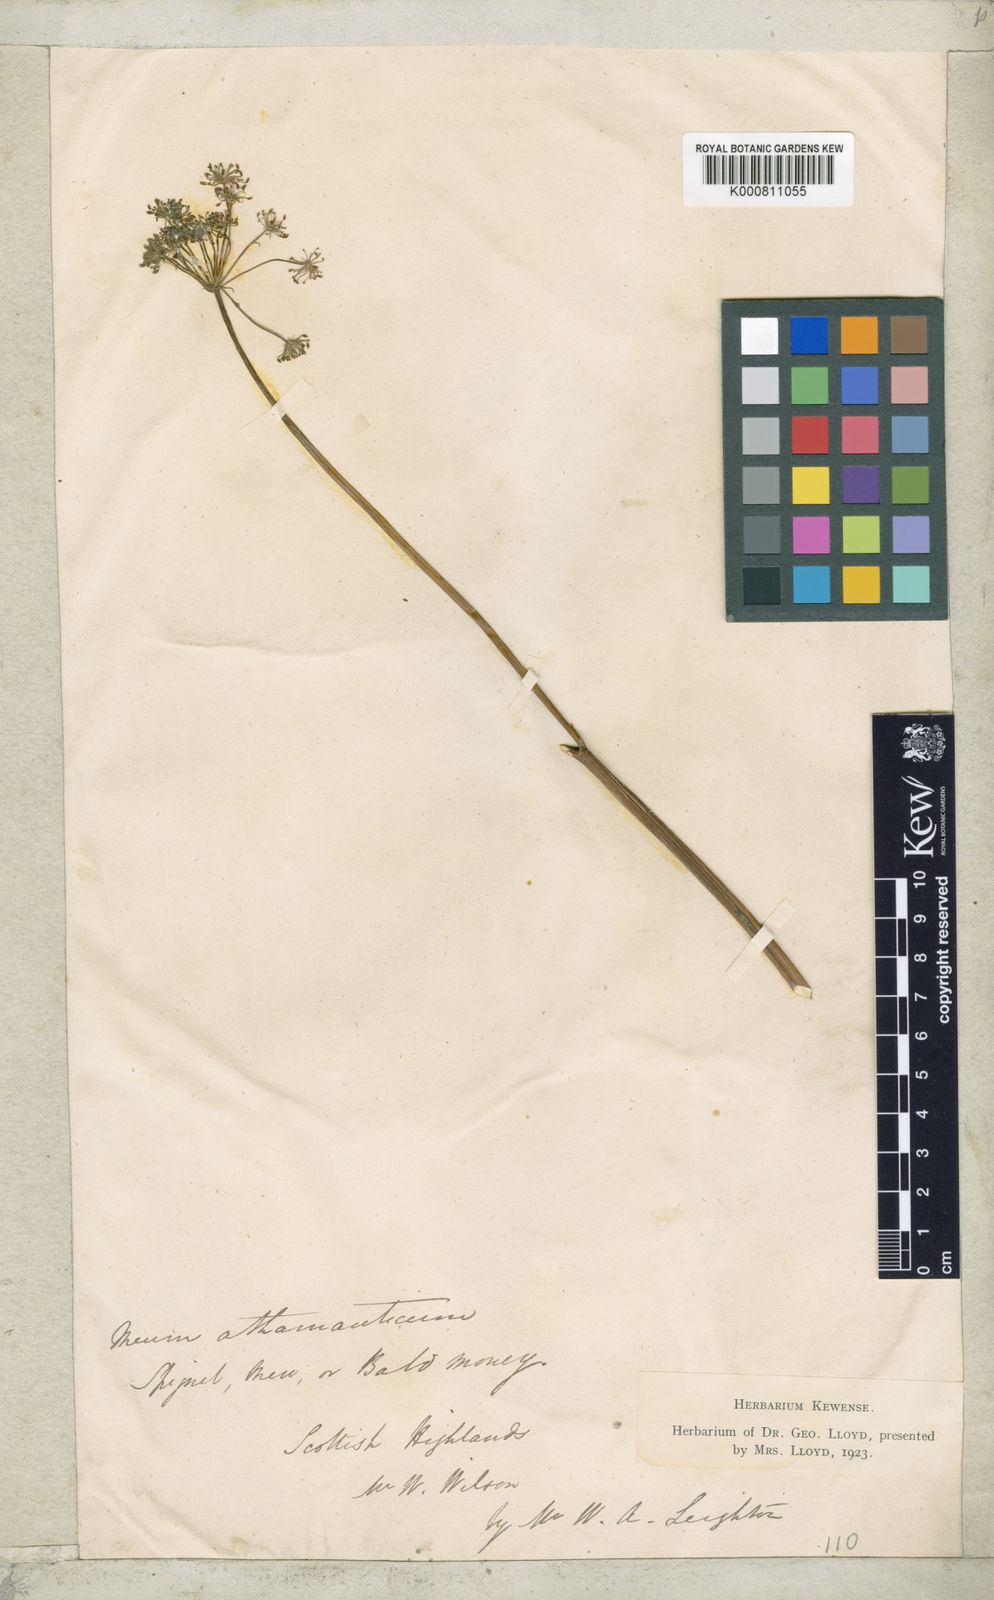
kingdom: Plantae
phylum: Tracheophyta
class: Magnoliopsida
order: Apiales
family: Apiaceae
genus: Meum
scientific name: Meum athamanticum
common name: Spignel
